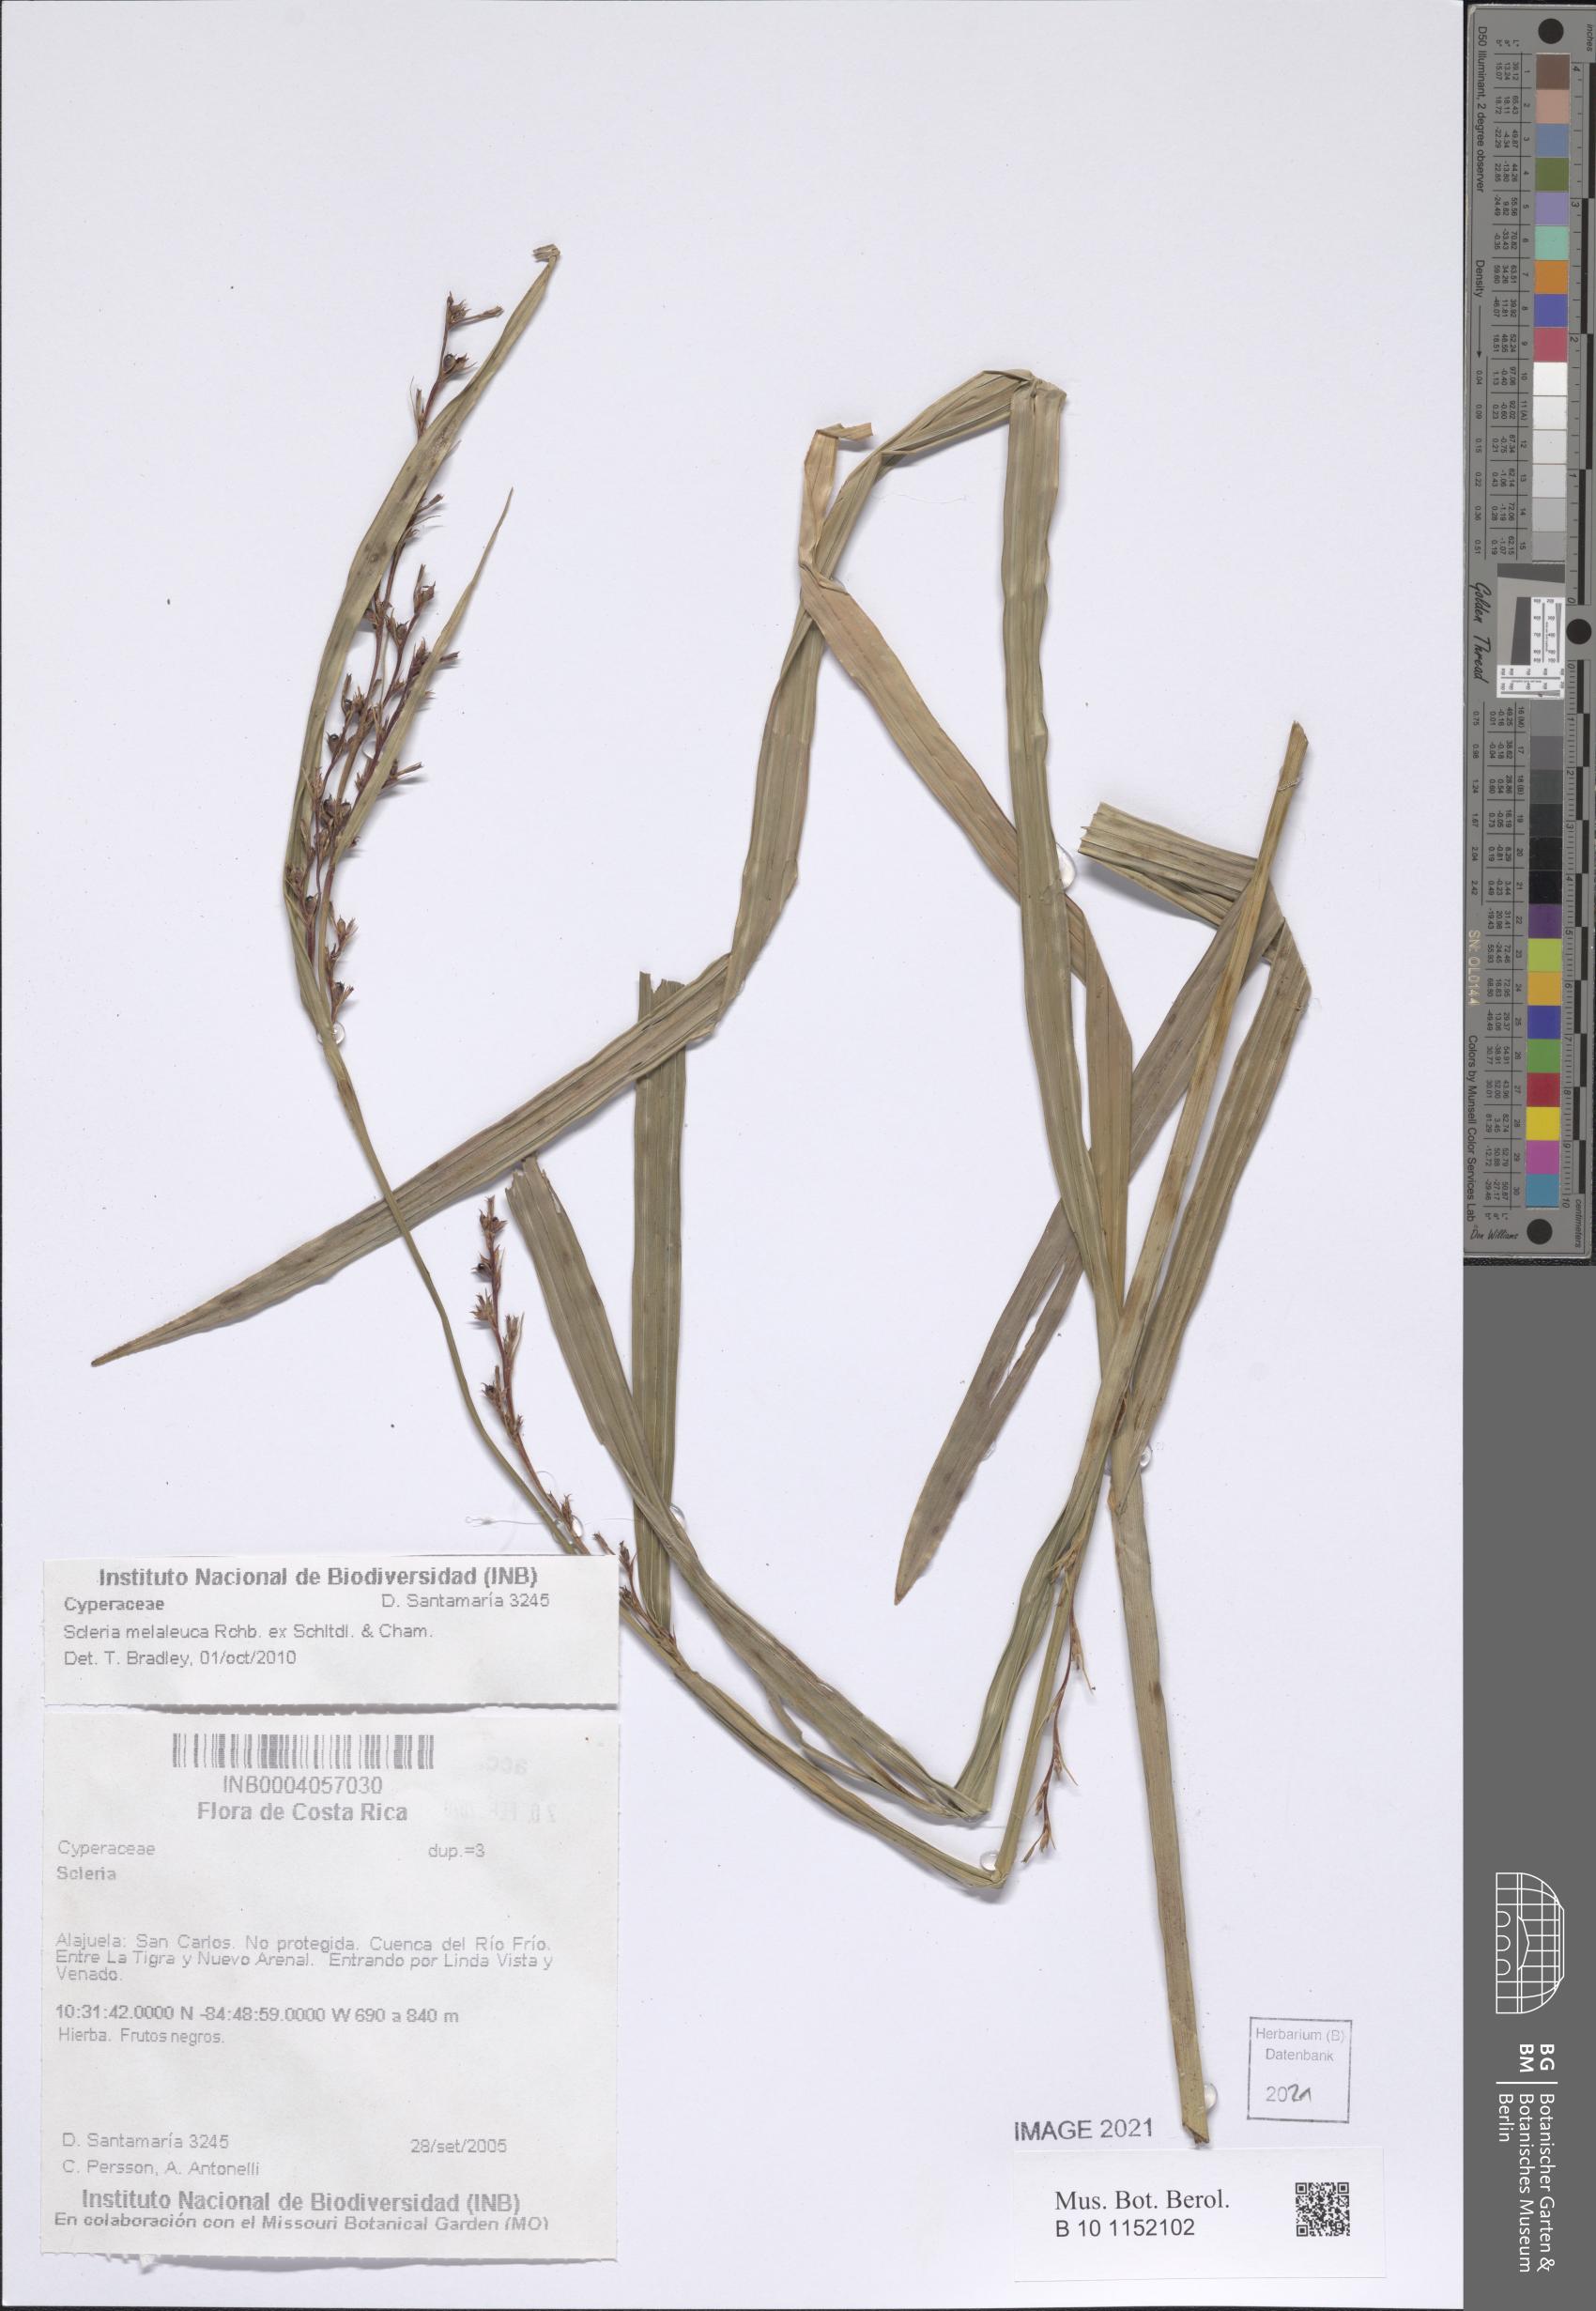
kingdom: Plantae
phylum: Tracheophyta
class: Liliopsida
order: Poales
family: Cyperaceae
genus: Scleria
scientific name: Scleria gaertneri
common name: Cortadera blanca
